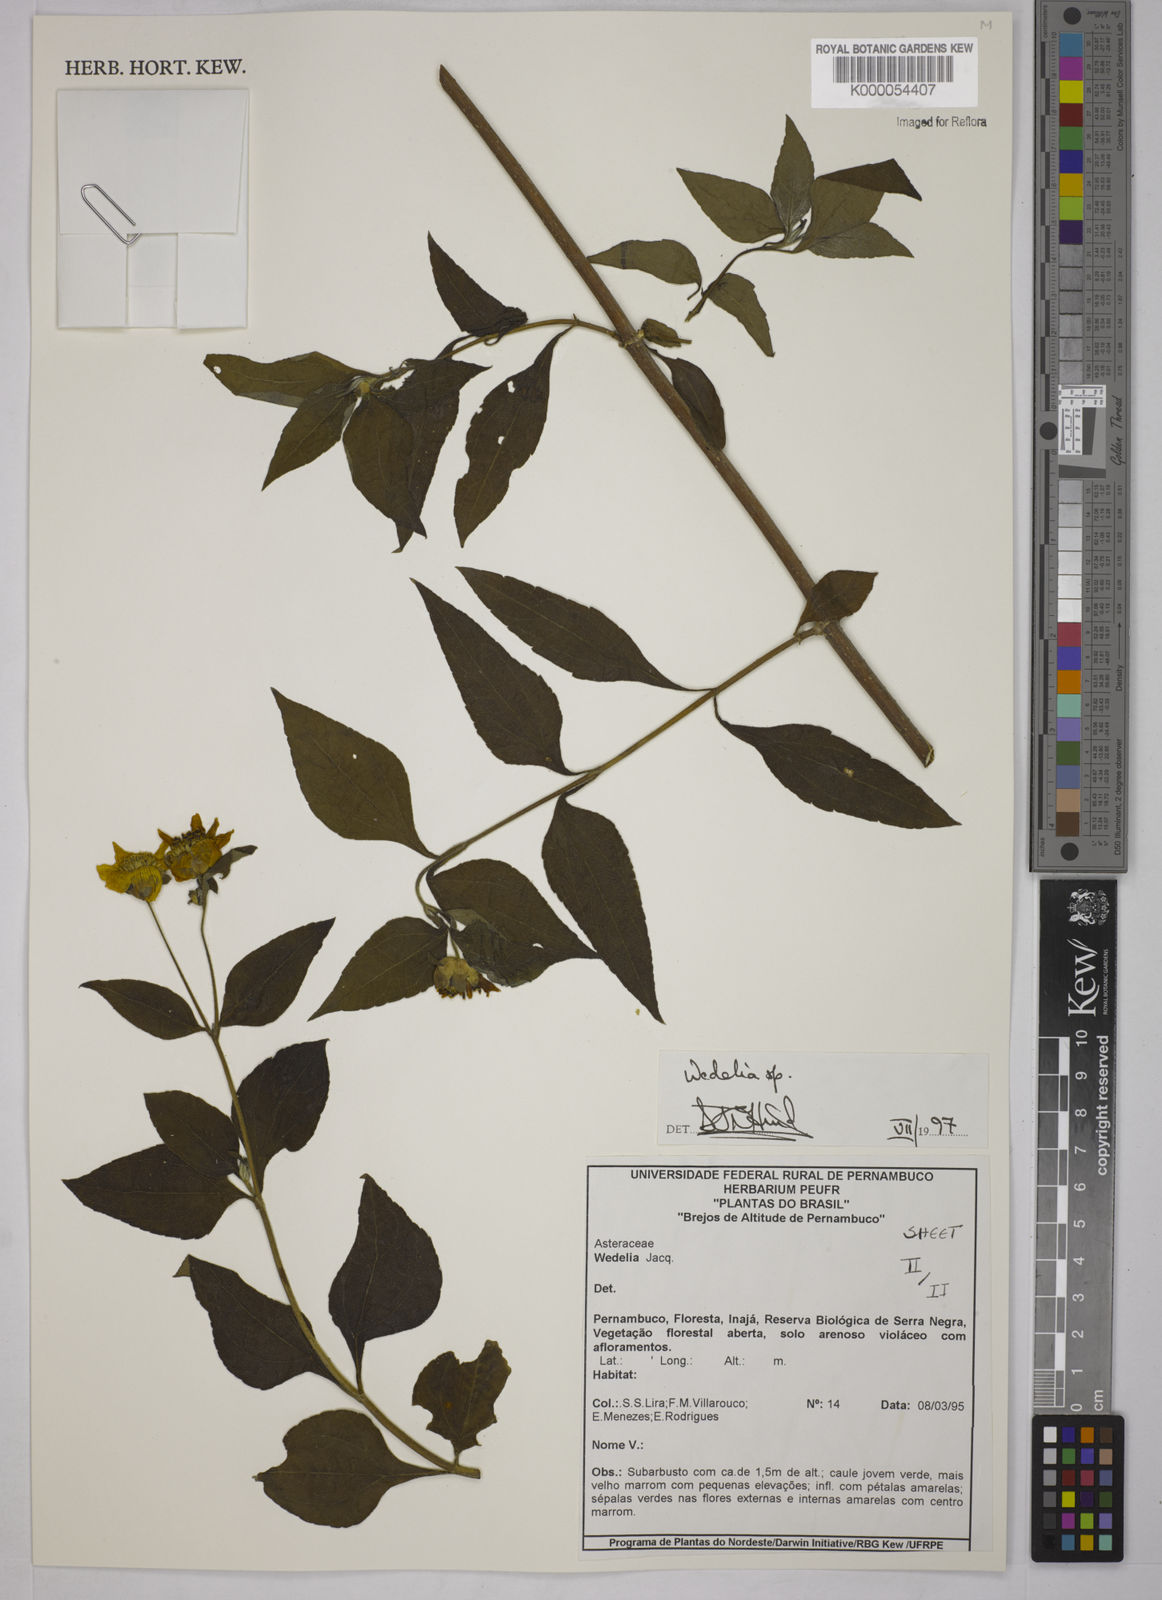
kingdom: Plantae
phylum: Tracheophyta
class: Magnoliopsida
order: Asterales
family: Asteraceae
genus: Wedelia
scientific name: Wedelia
